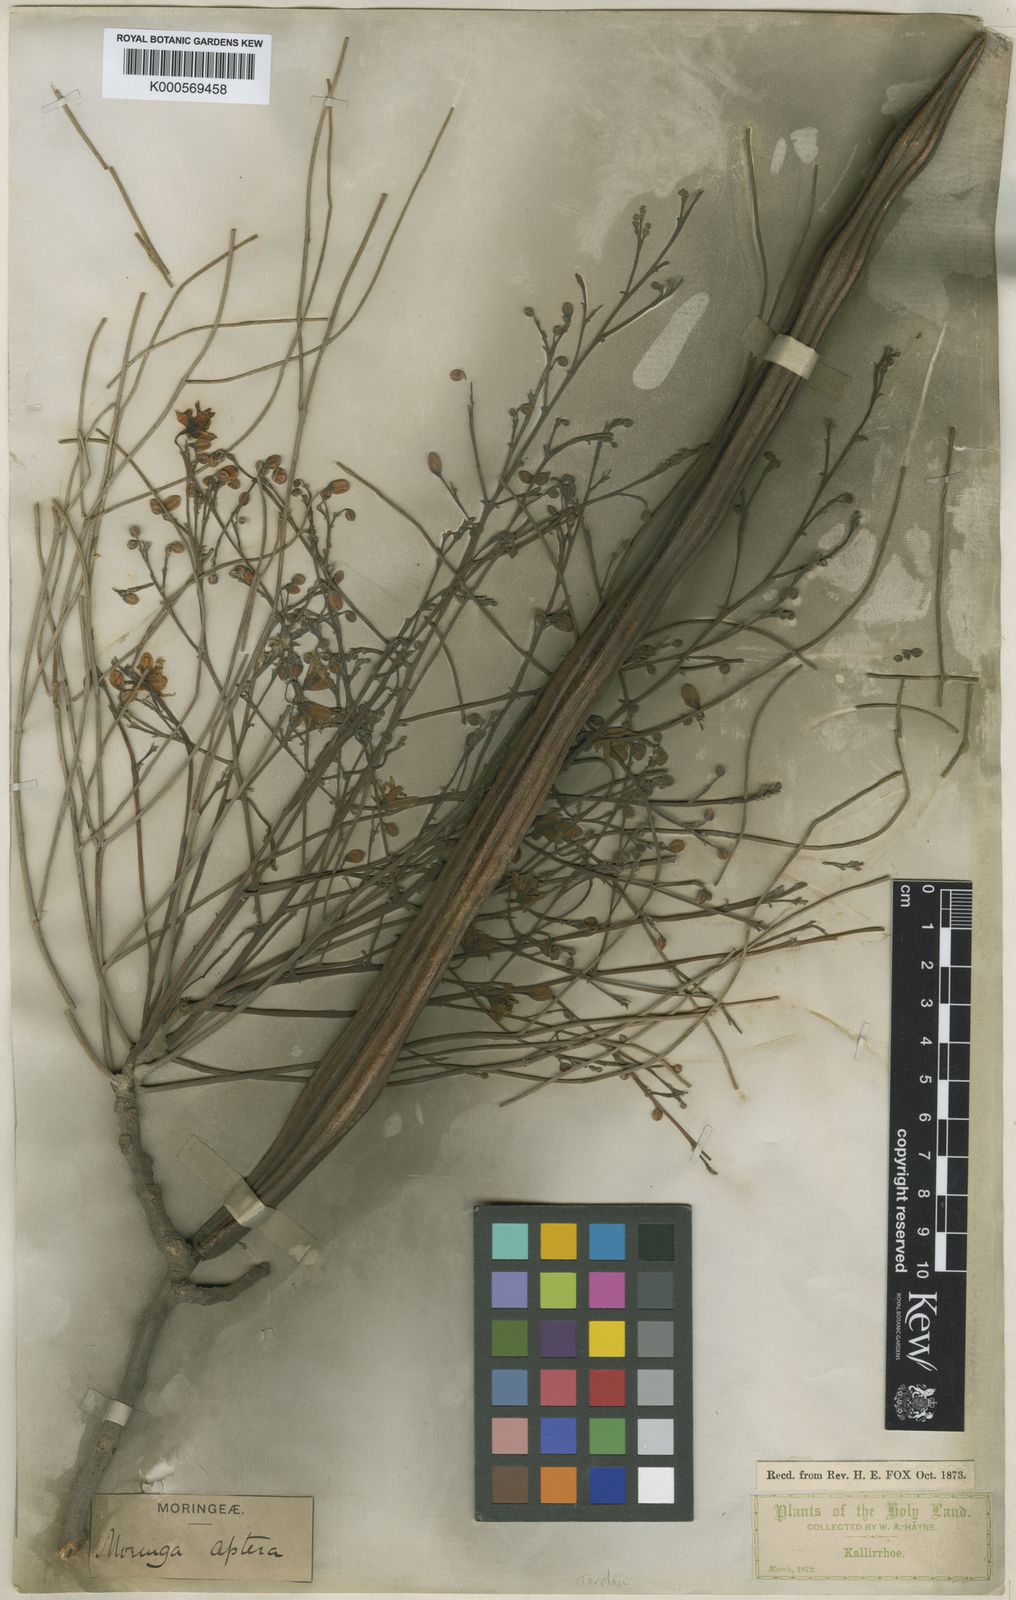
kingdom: Plantae
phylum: Tracheophyta
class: Magnoliopsida
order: Brassicales
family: Moringaceae
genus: Moringa
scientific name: Moringa peregrina
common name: Wild drumstick tree
